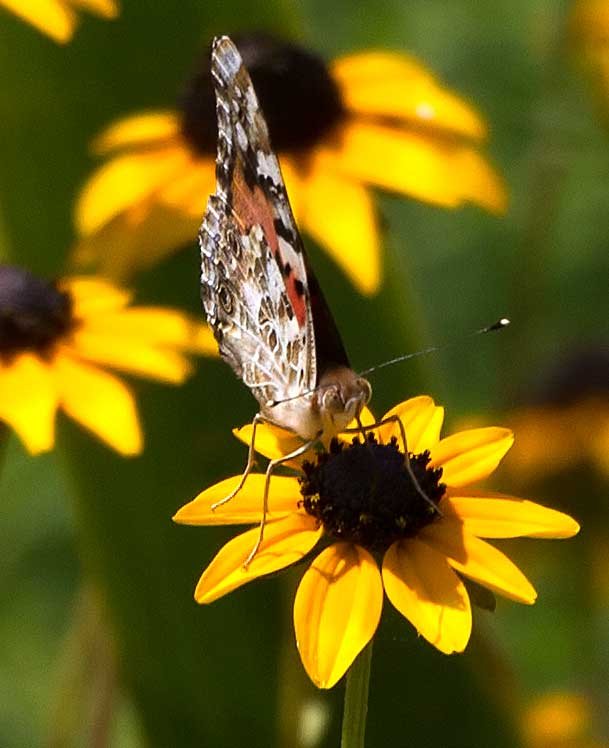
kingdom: Animalia
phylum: Arthropoda
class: Insecta
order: Lepidoptera
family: Nymphalidae
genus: Vanessa
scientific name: Vanessa cardui
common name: Painted Lady
